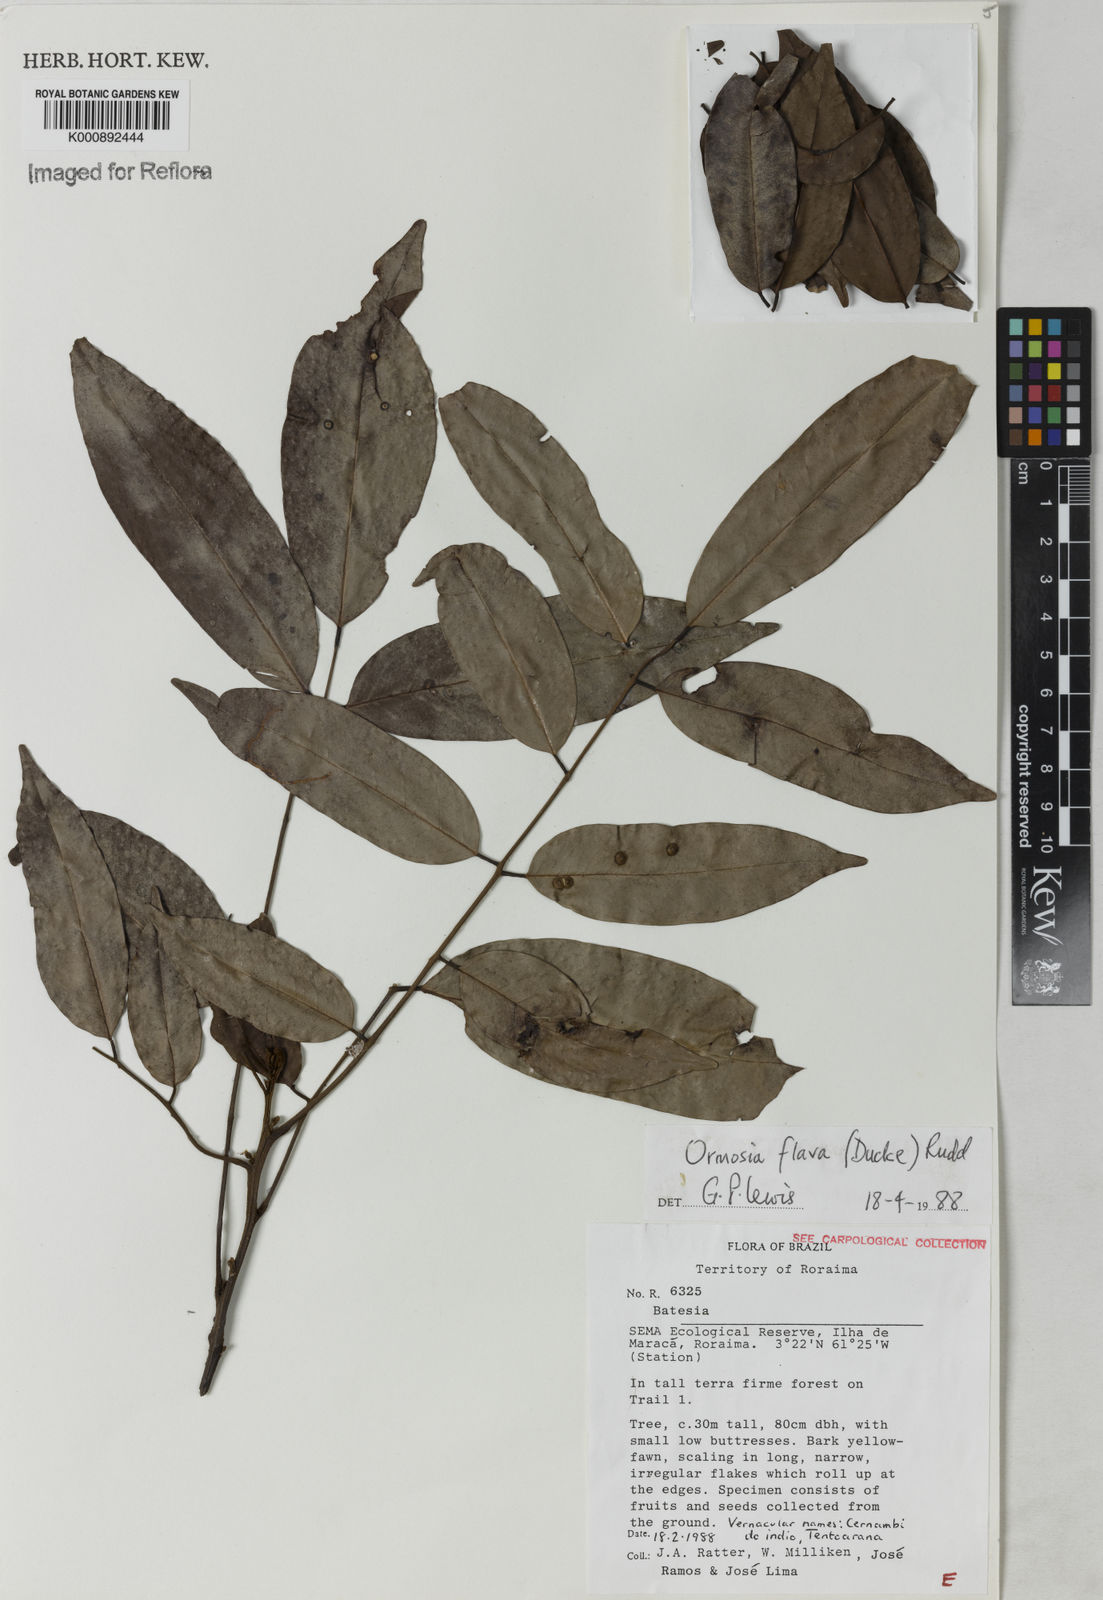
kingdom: Plantae
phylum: Tracheophyta
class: Magnoliopsida
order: Fabales
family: Fabaceae
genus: Ormosia
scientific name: Ormosia flava
